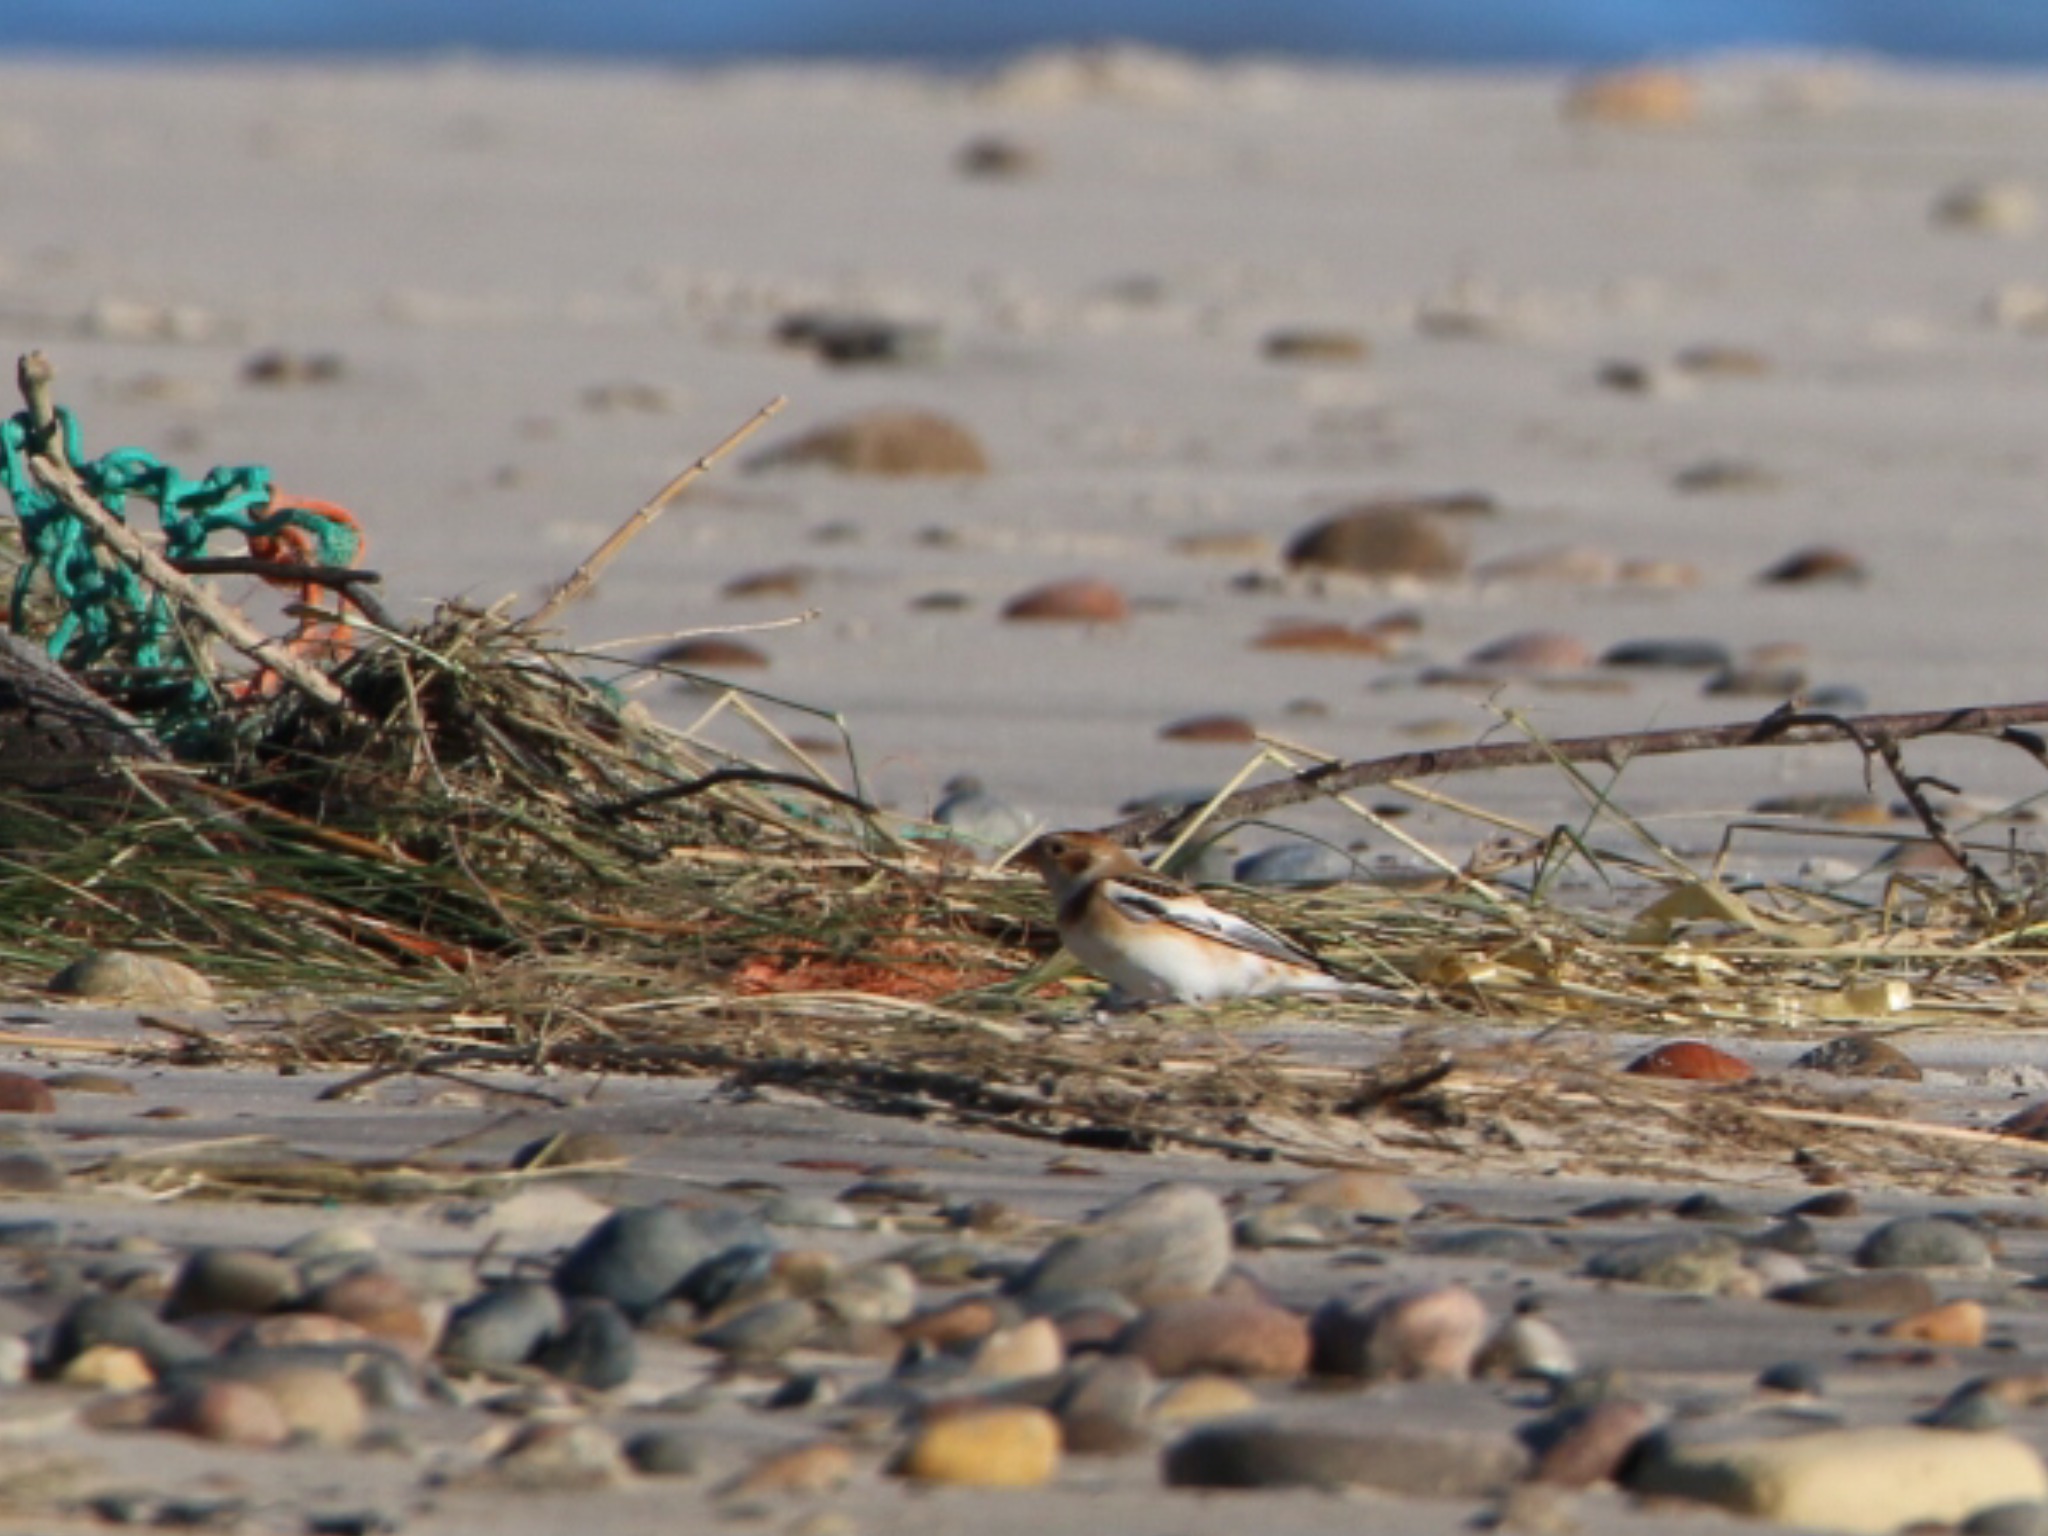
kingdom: Animalia
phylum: Chordata
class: Aves
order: Passeriformes
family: Calcariidae
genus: Plectrophenax
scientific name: Plectrophenax nivalis
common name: Snespurv
